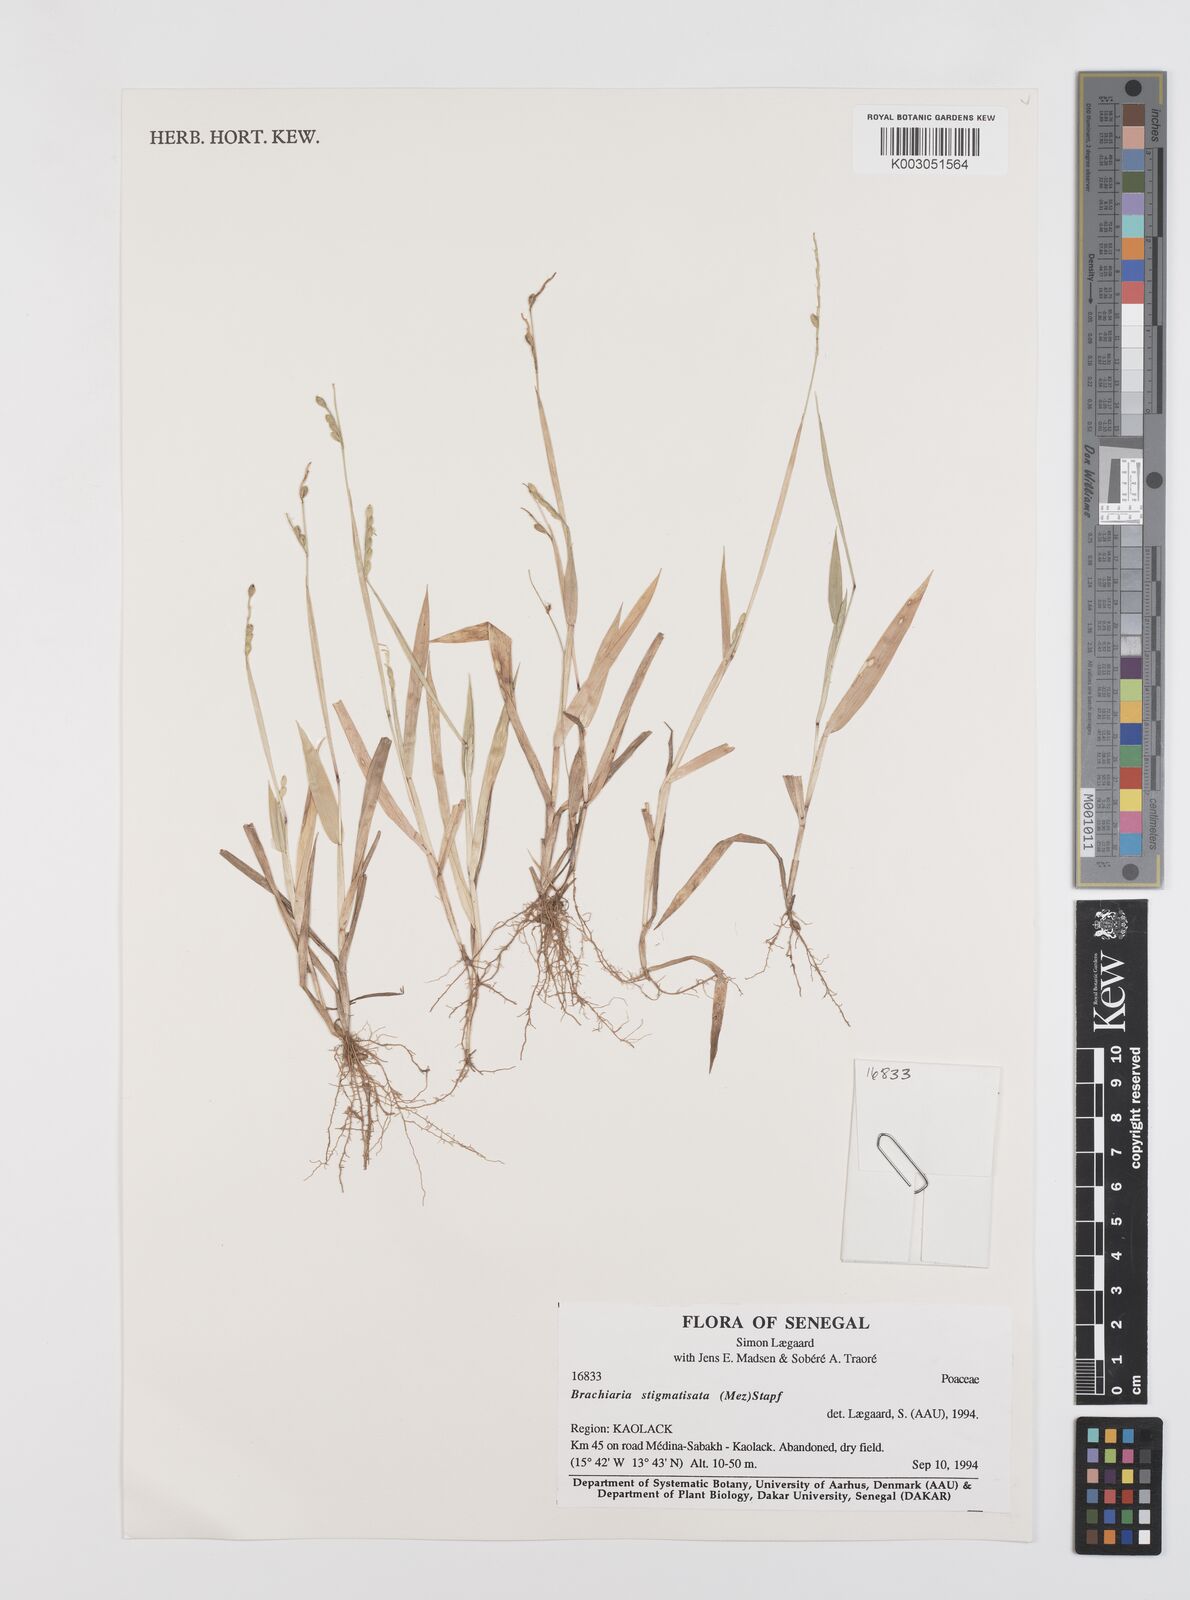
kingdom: Plantae
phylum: Tracheophyta
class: Liliopsida
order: Poales
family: Poaceae
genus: Urochloa
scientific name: Urochloa stigmatisata
